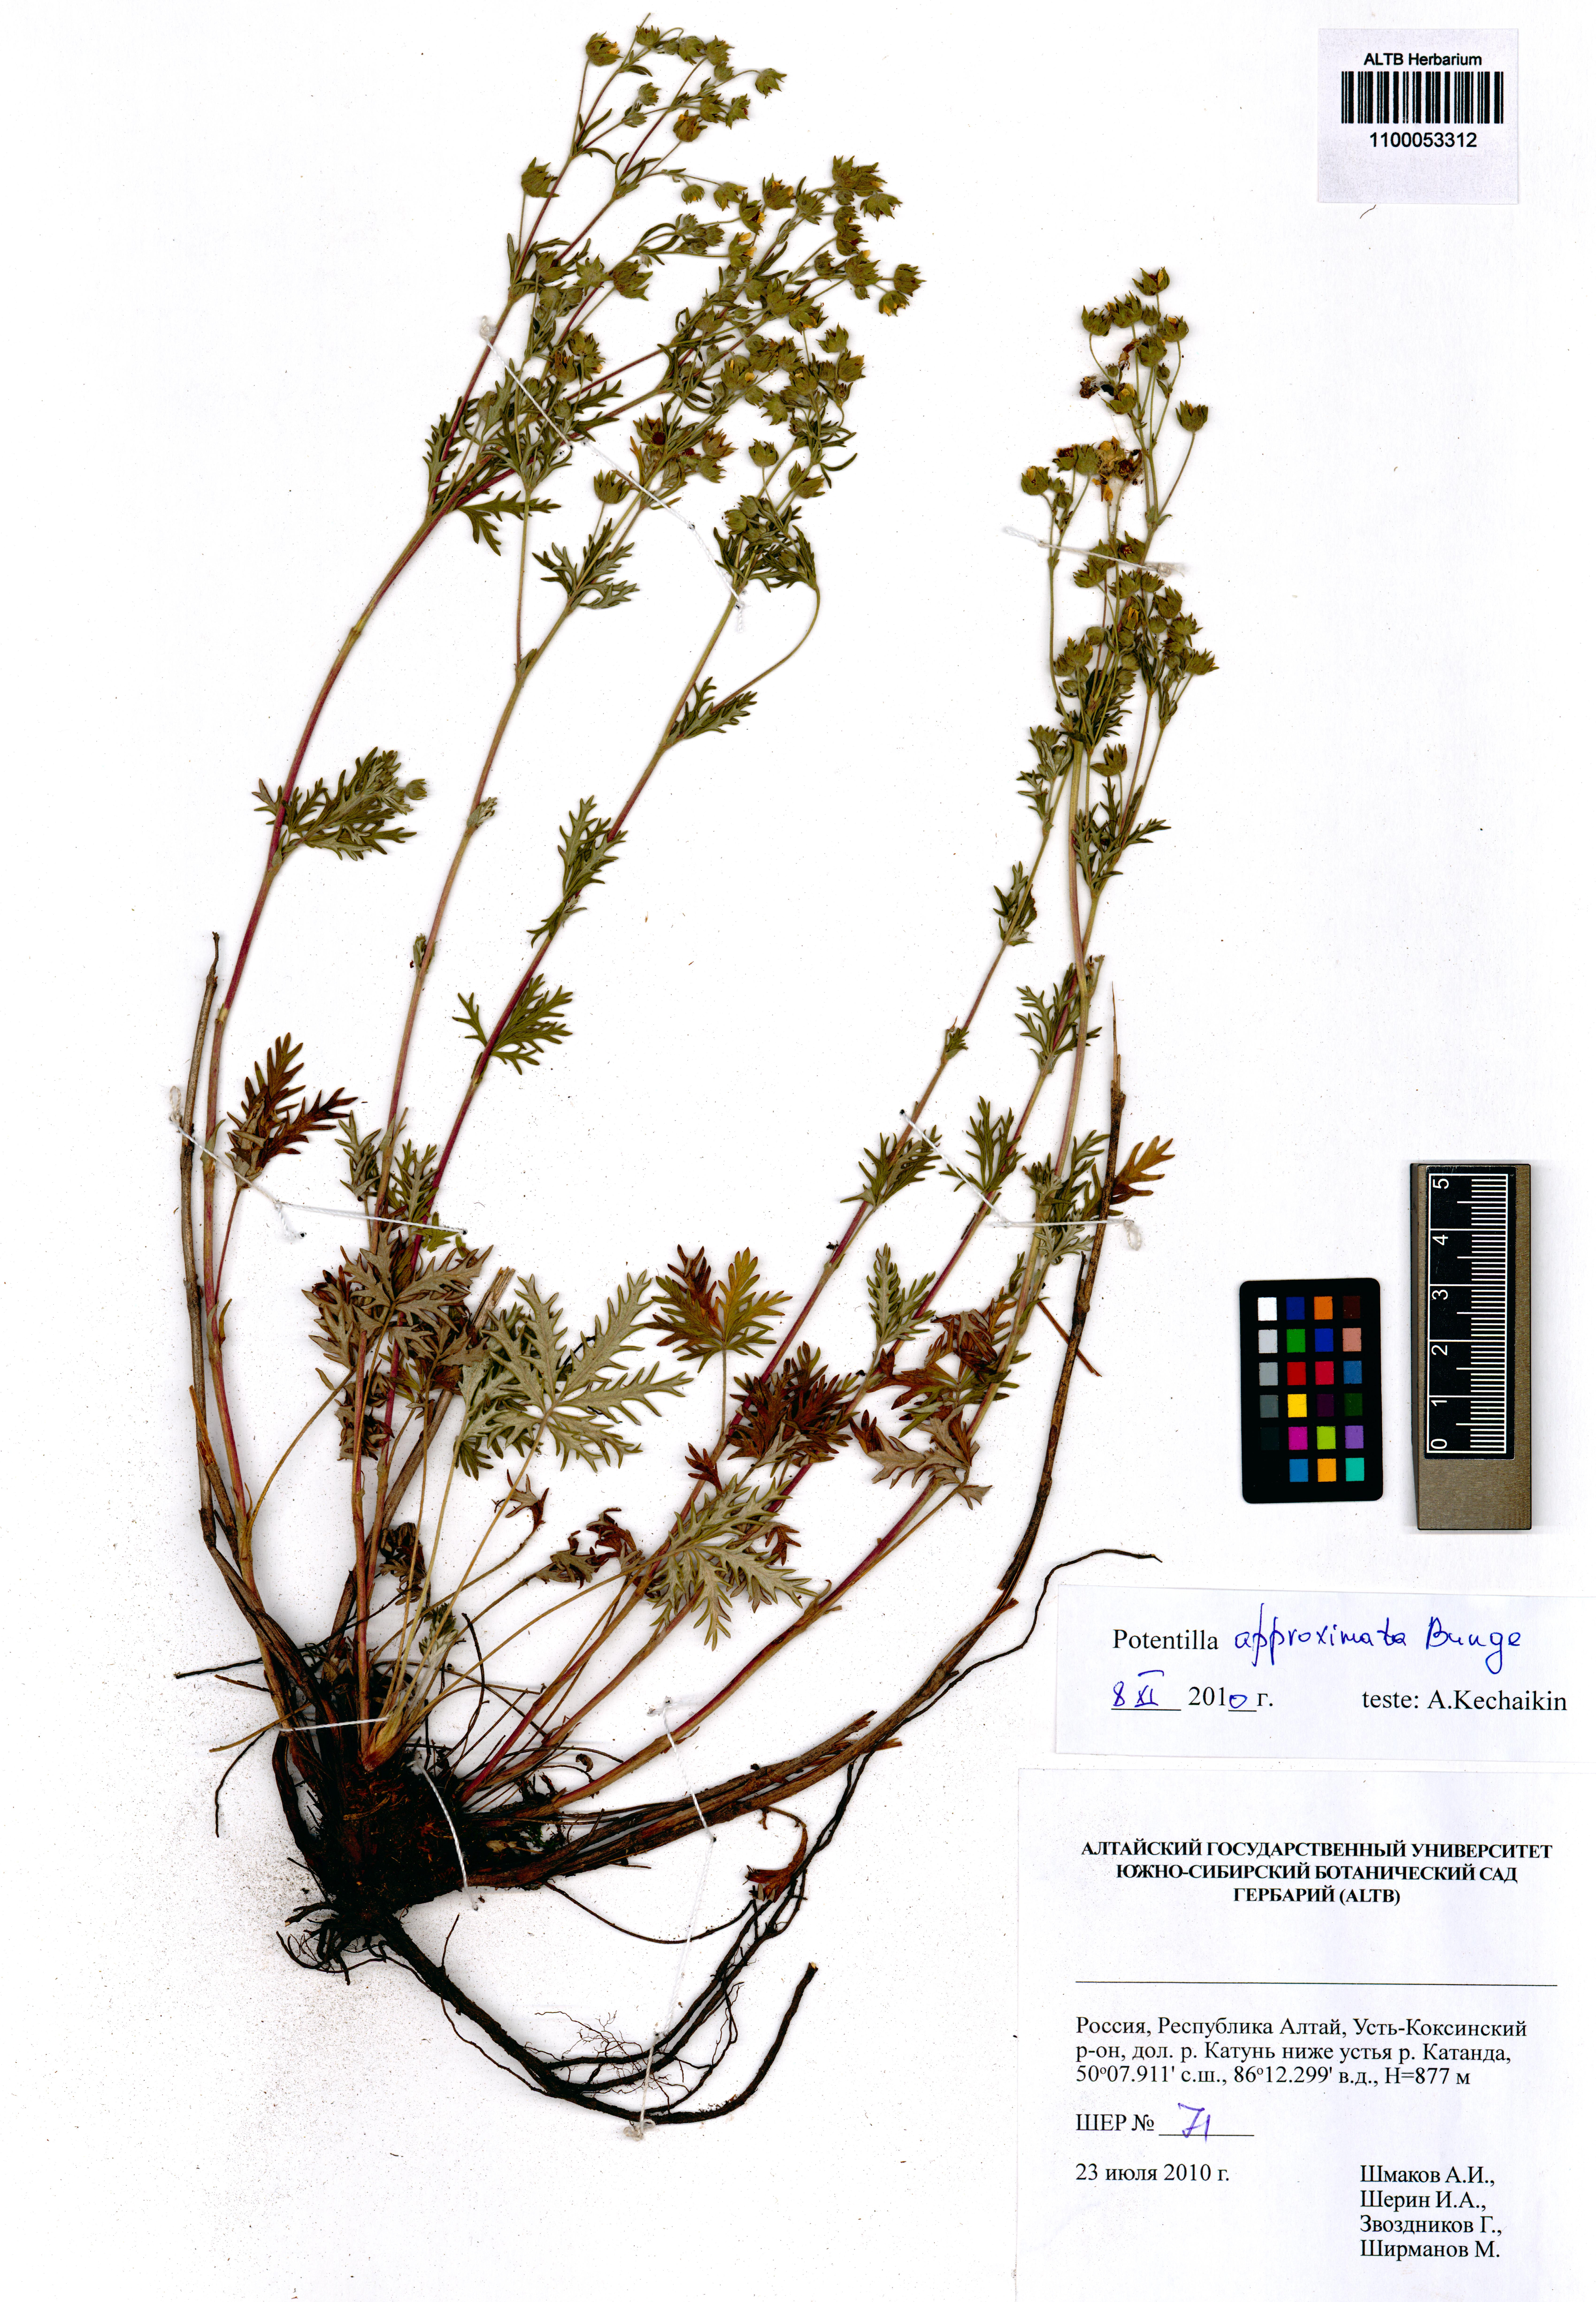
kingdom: Plantae
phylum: Tracheophyta
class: Magnoliopsida
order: Rosales
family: Rosaceae
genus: Potentilla
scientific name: Potentilla conferta
